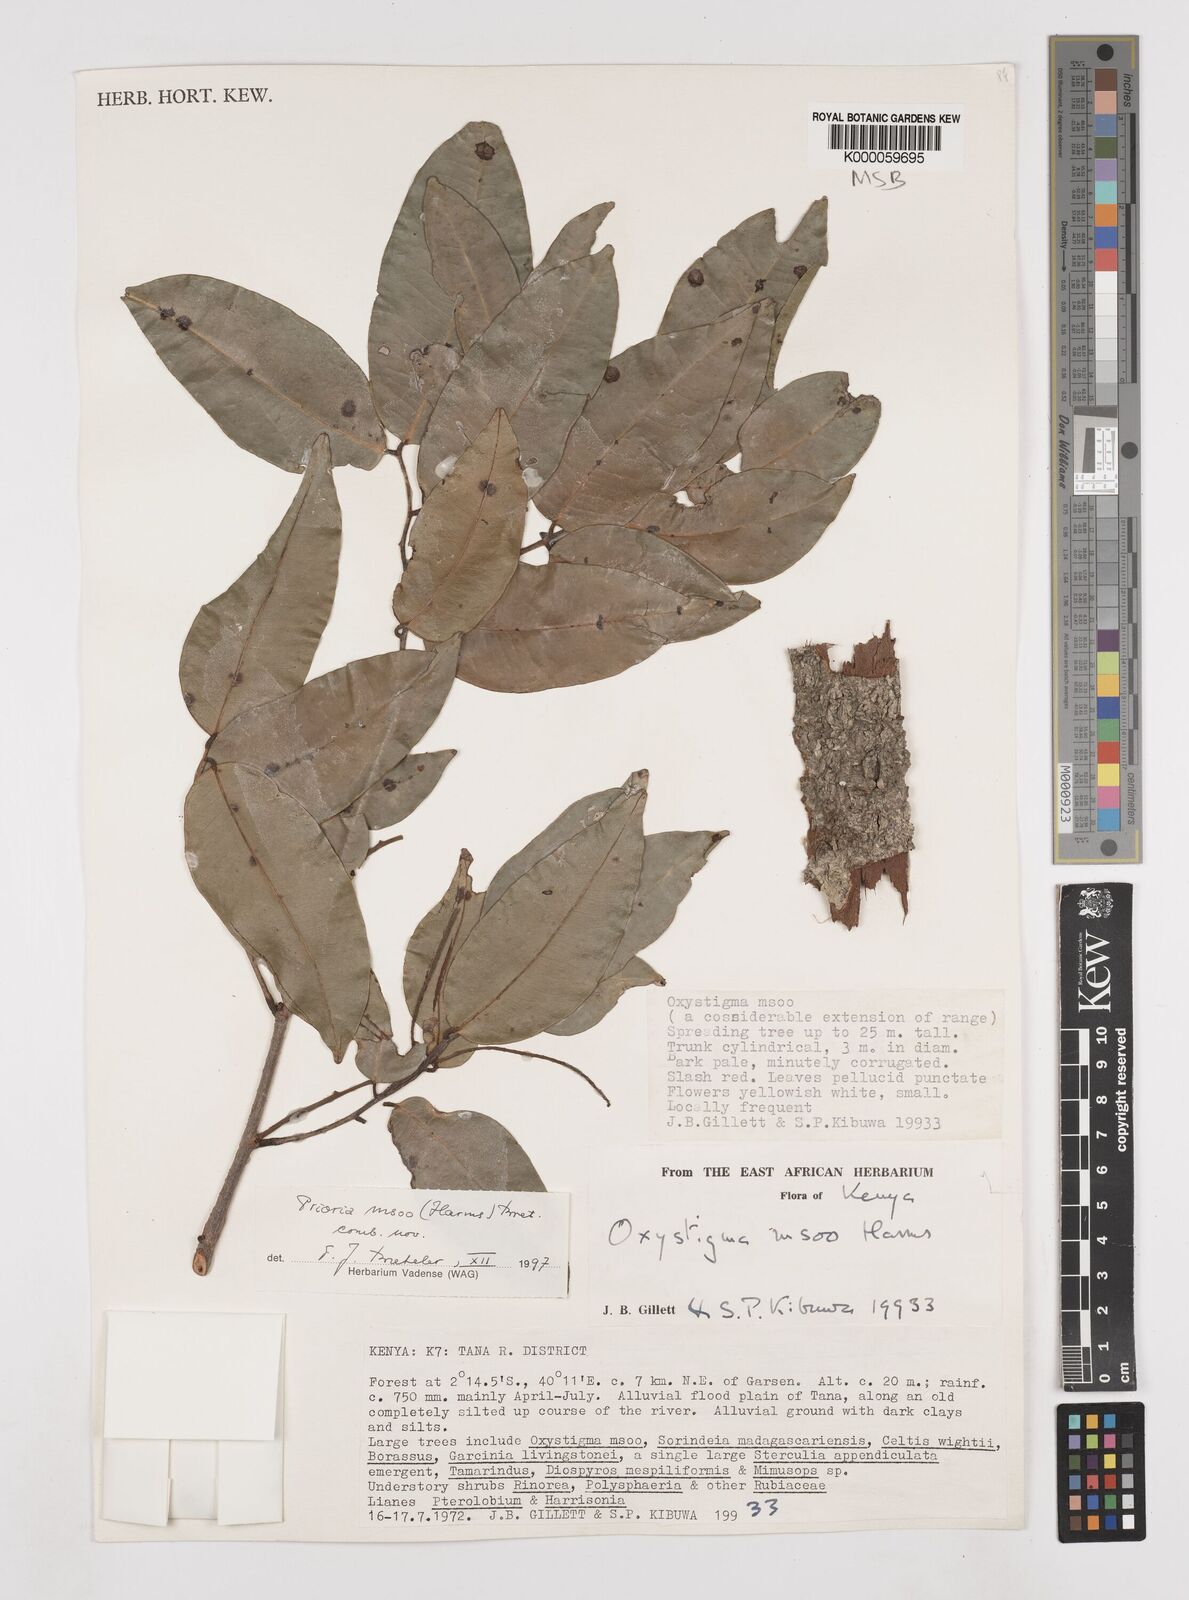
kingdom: Plantae
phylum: Tracheophyta
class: Magnoliopsida
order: Fabales
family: Fabaceae
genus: Prioria
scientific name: Prioria msoo
